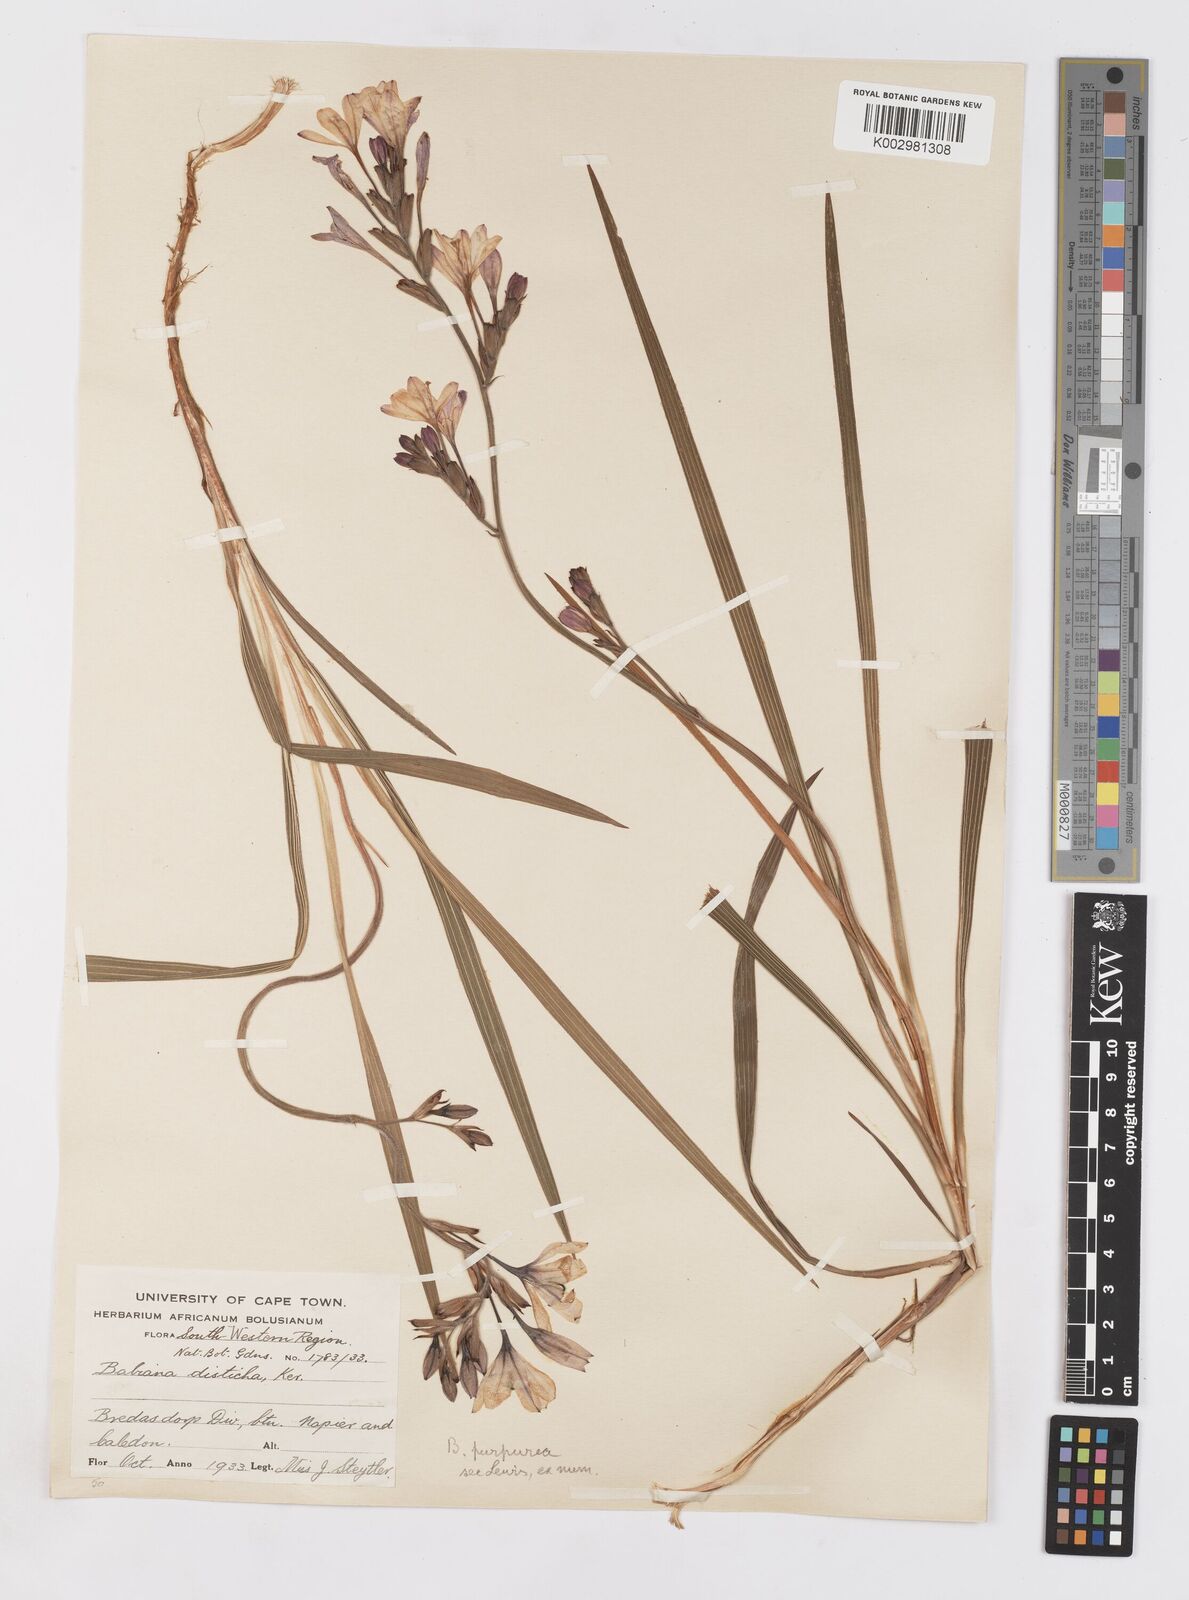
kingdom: Plantae
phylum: Tracheophyta
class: Liliopsida
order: Asparagales
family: Iridaceae
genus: Babiana
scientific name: Babiana purpurea
